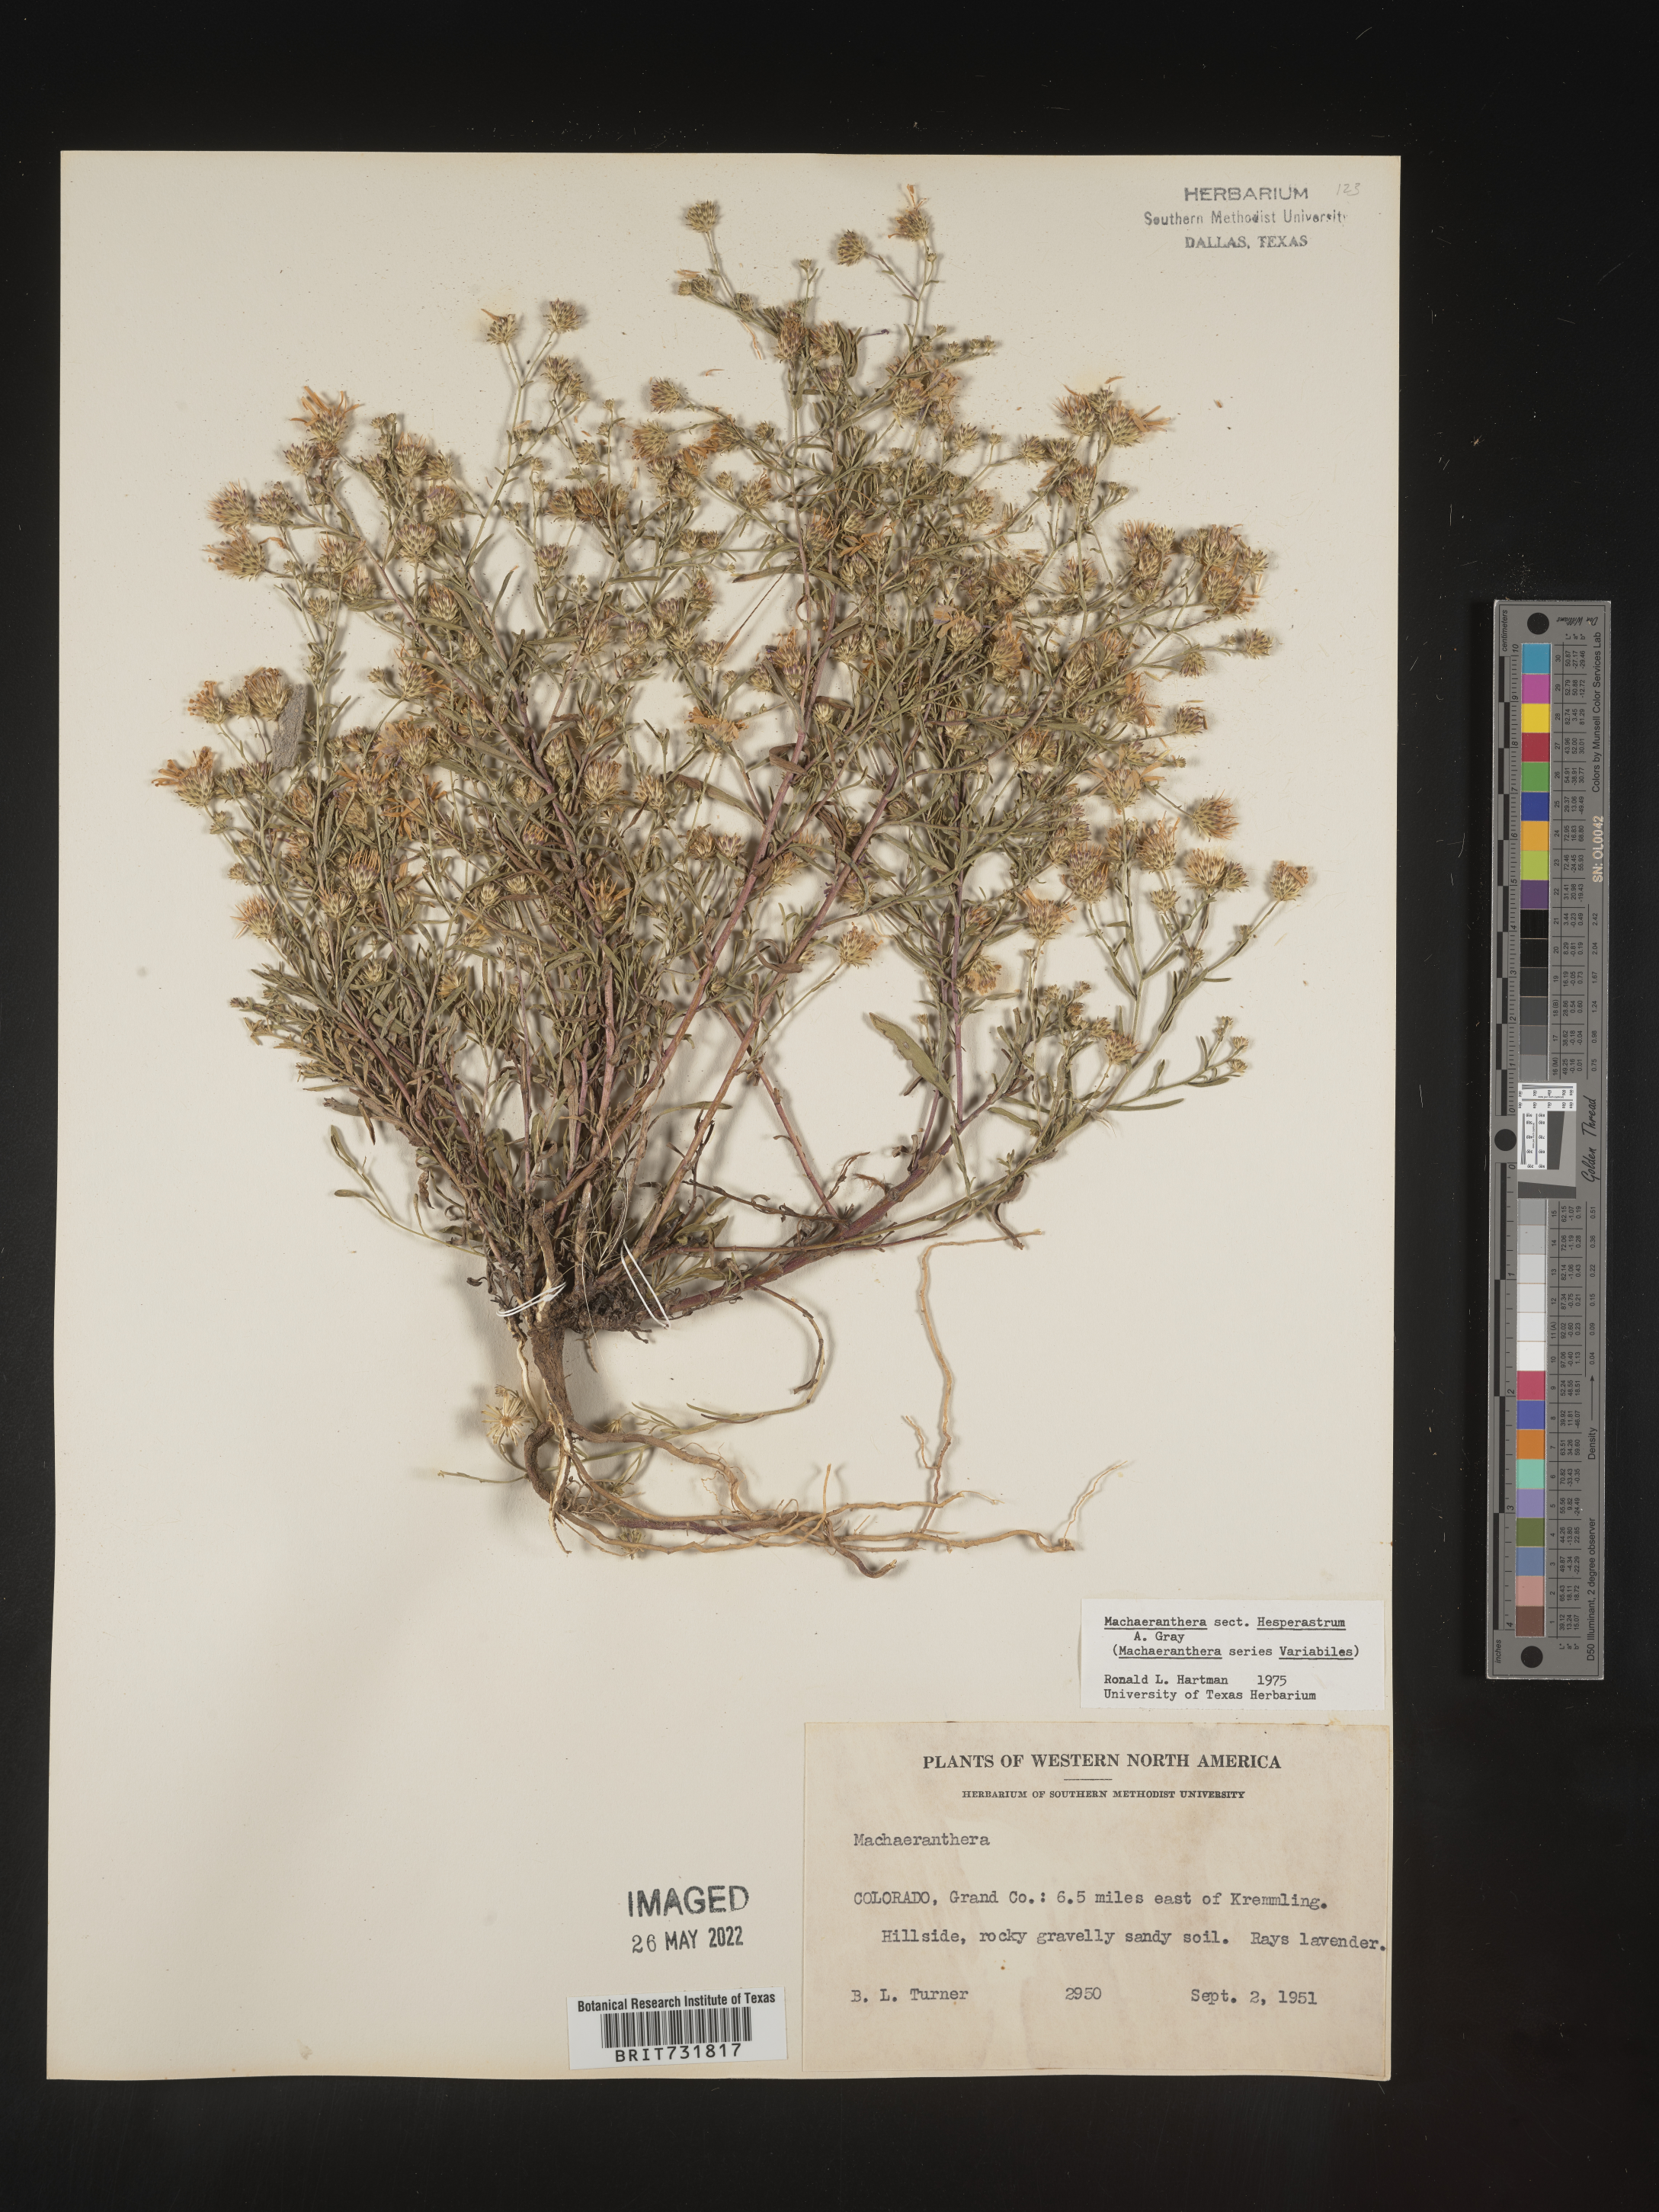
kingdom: Plantae
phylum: Tracheophyta
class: Magnoliopsida
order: Asterales
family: Asteraceae
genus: Machaeranthera
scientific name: Machaeranthera
